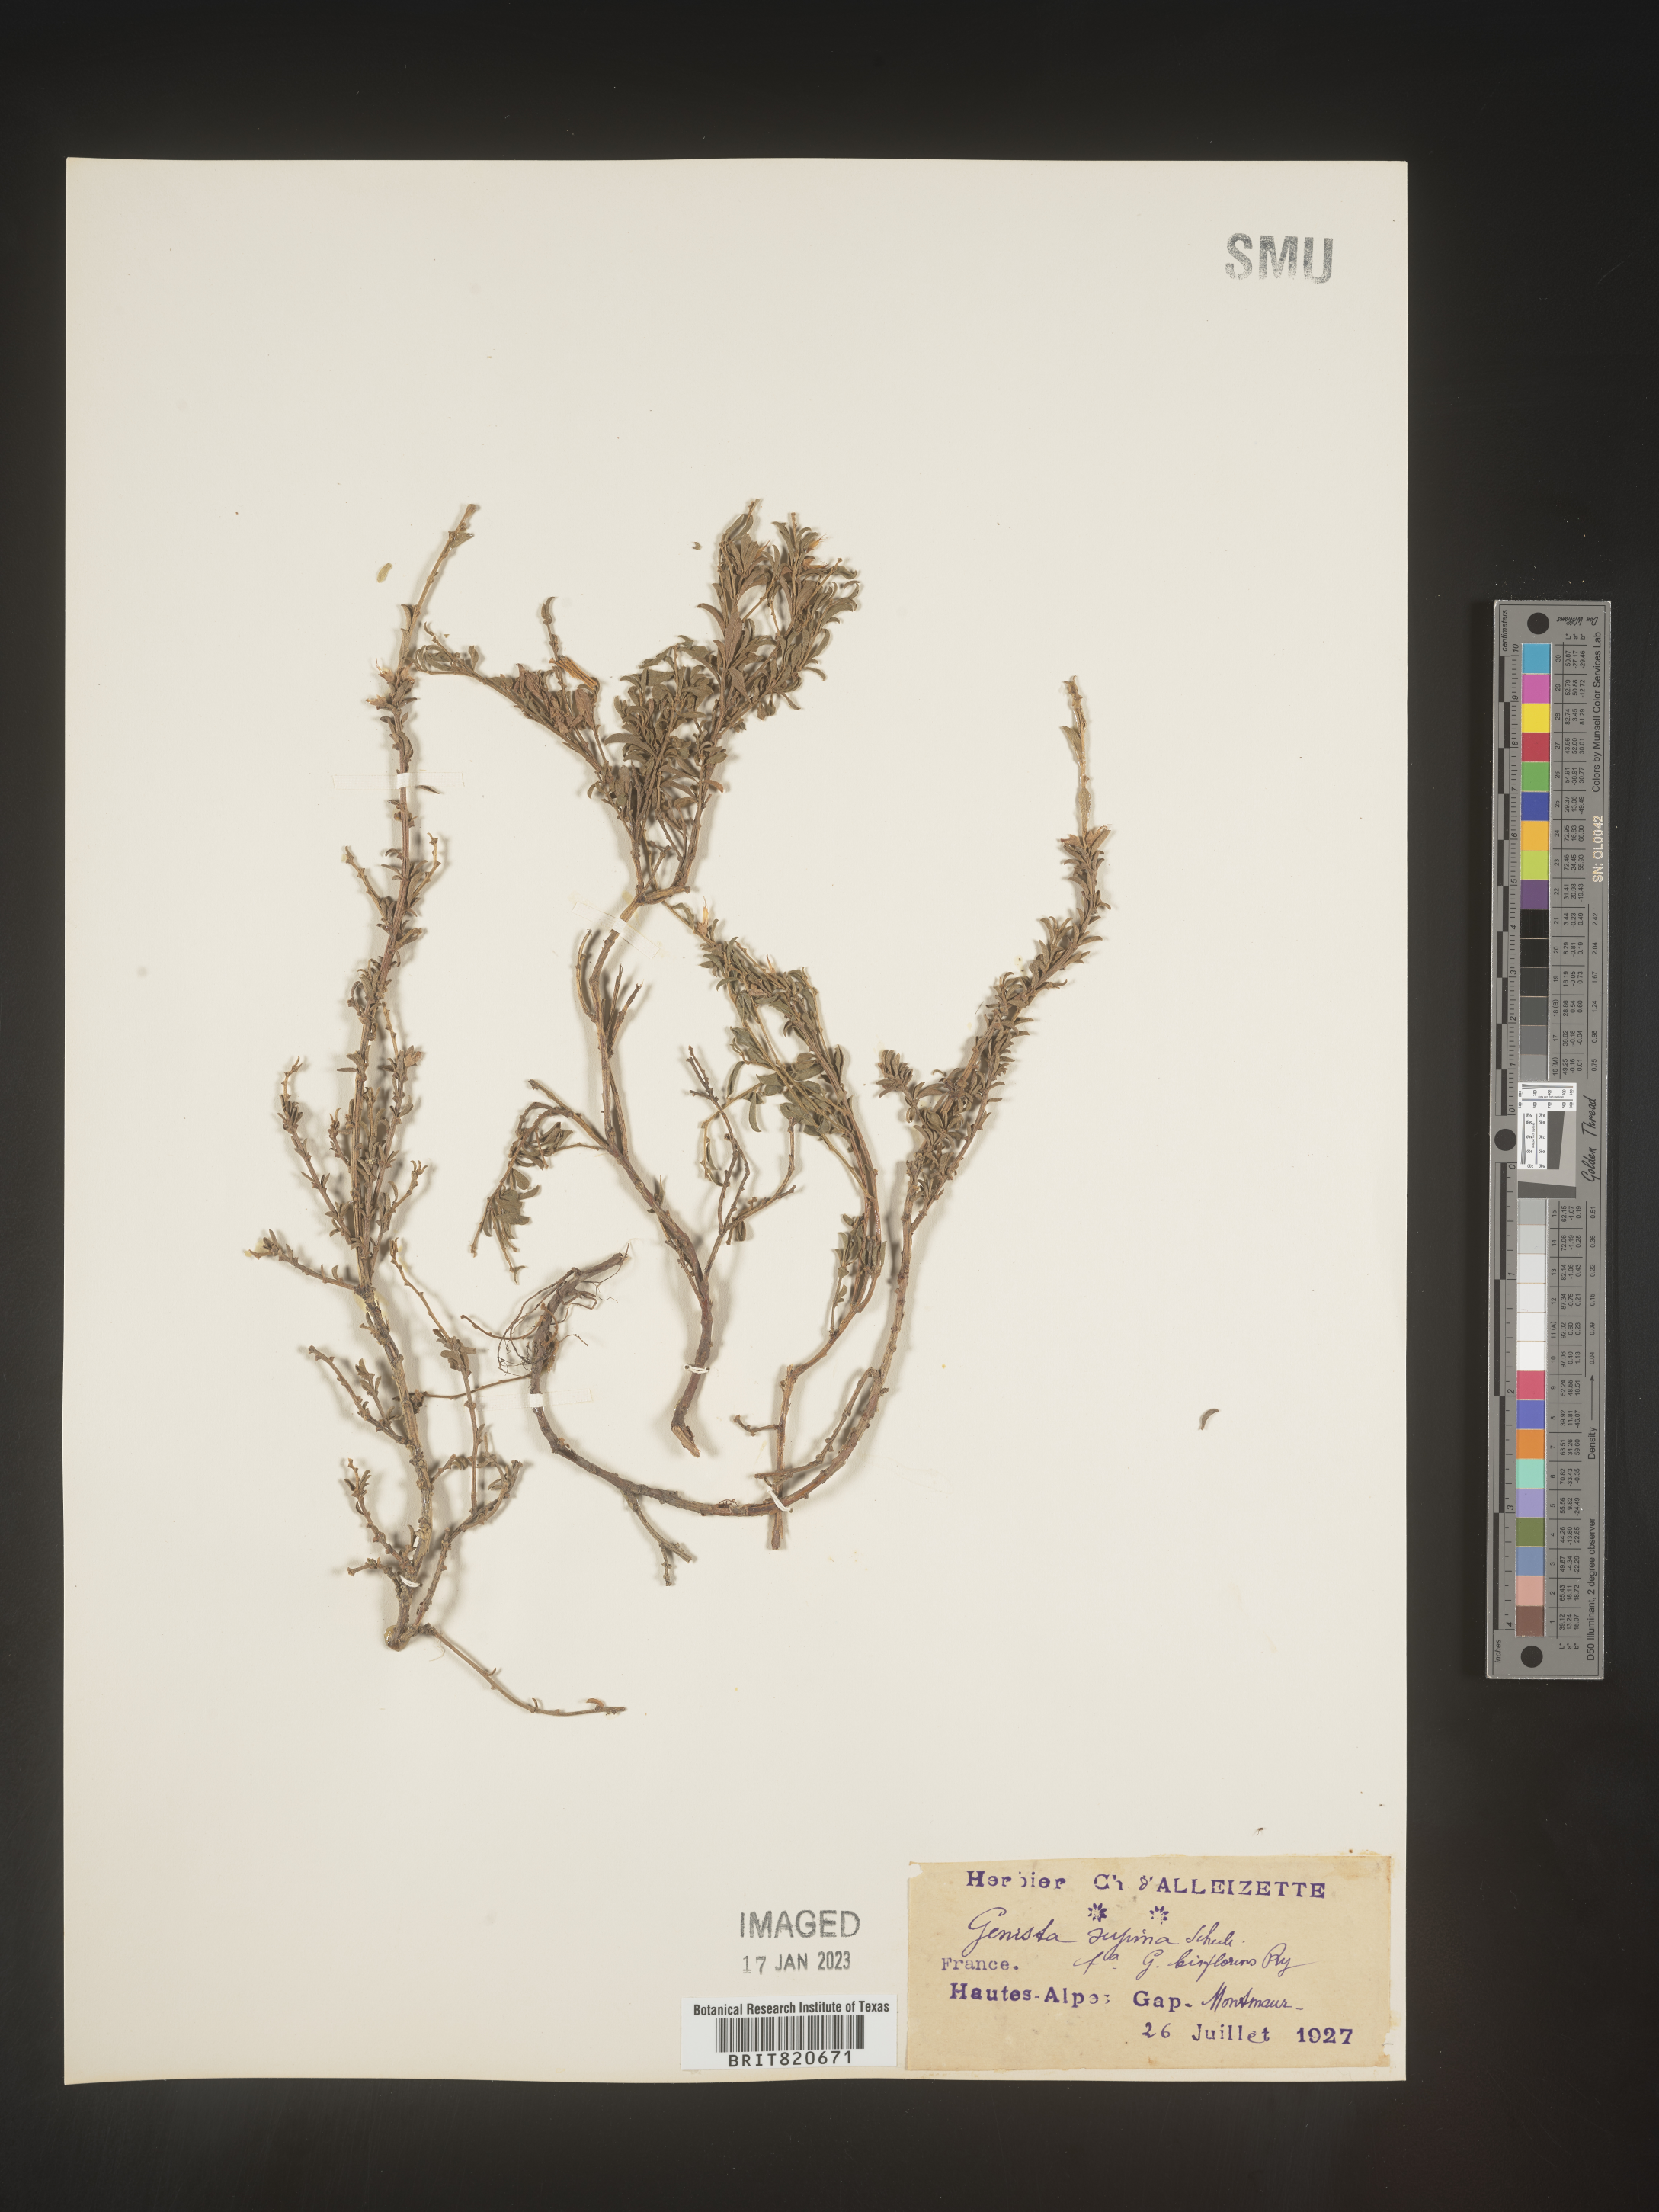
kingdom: Plantae
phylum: Tracheophyta
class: Magnoliopsida
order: Fabales
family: Fabaceae
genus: Genista
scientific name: Genista
